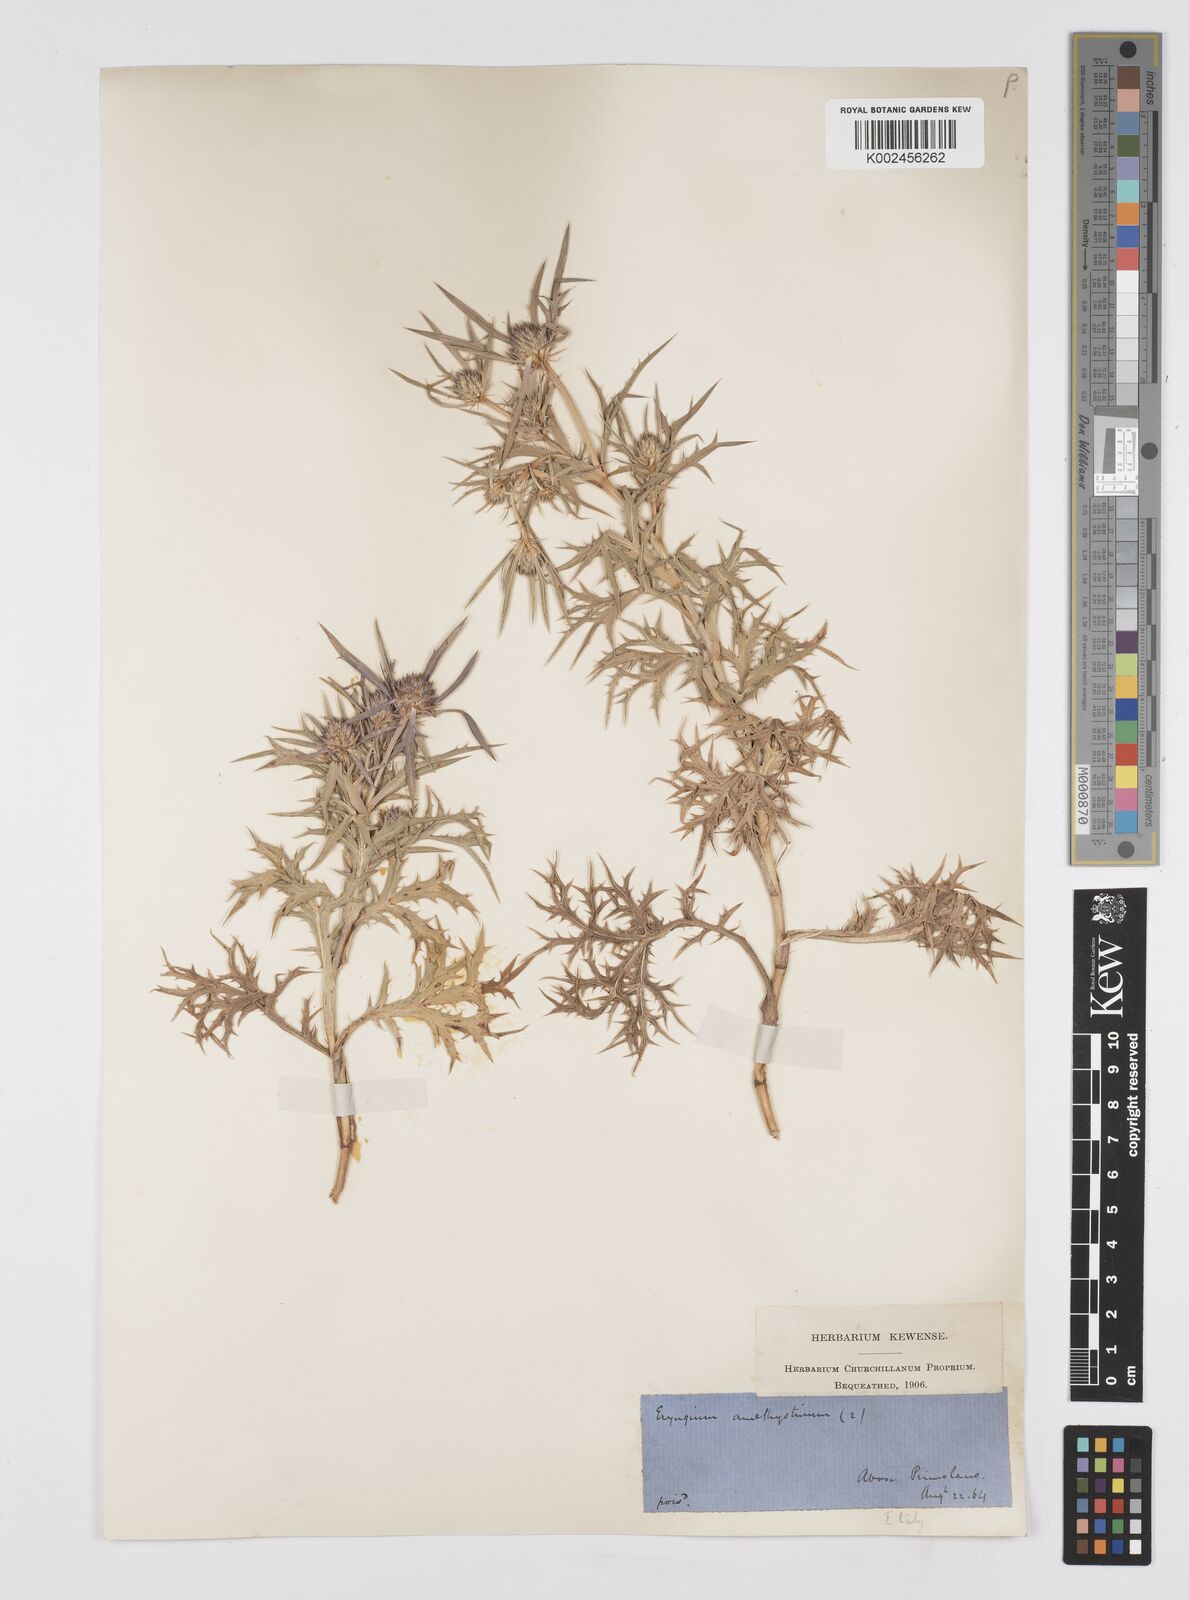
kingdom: Plantae
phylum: Tracheophyta
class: Magnoliopsida
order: Apiales
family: Apiaceae
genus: Eryngium
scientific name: Eryngium amethystinum
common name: Amethyst eryngo
